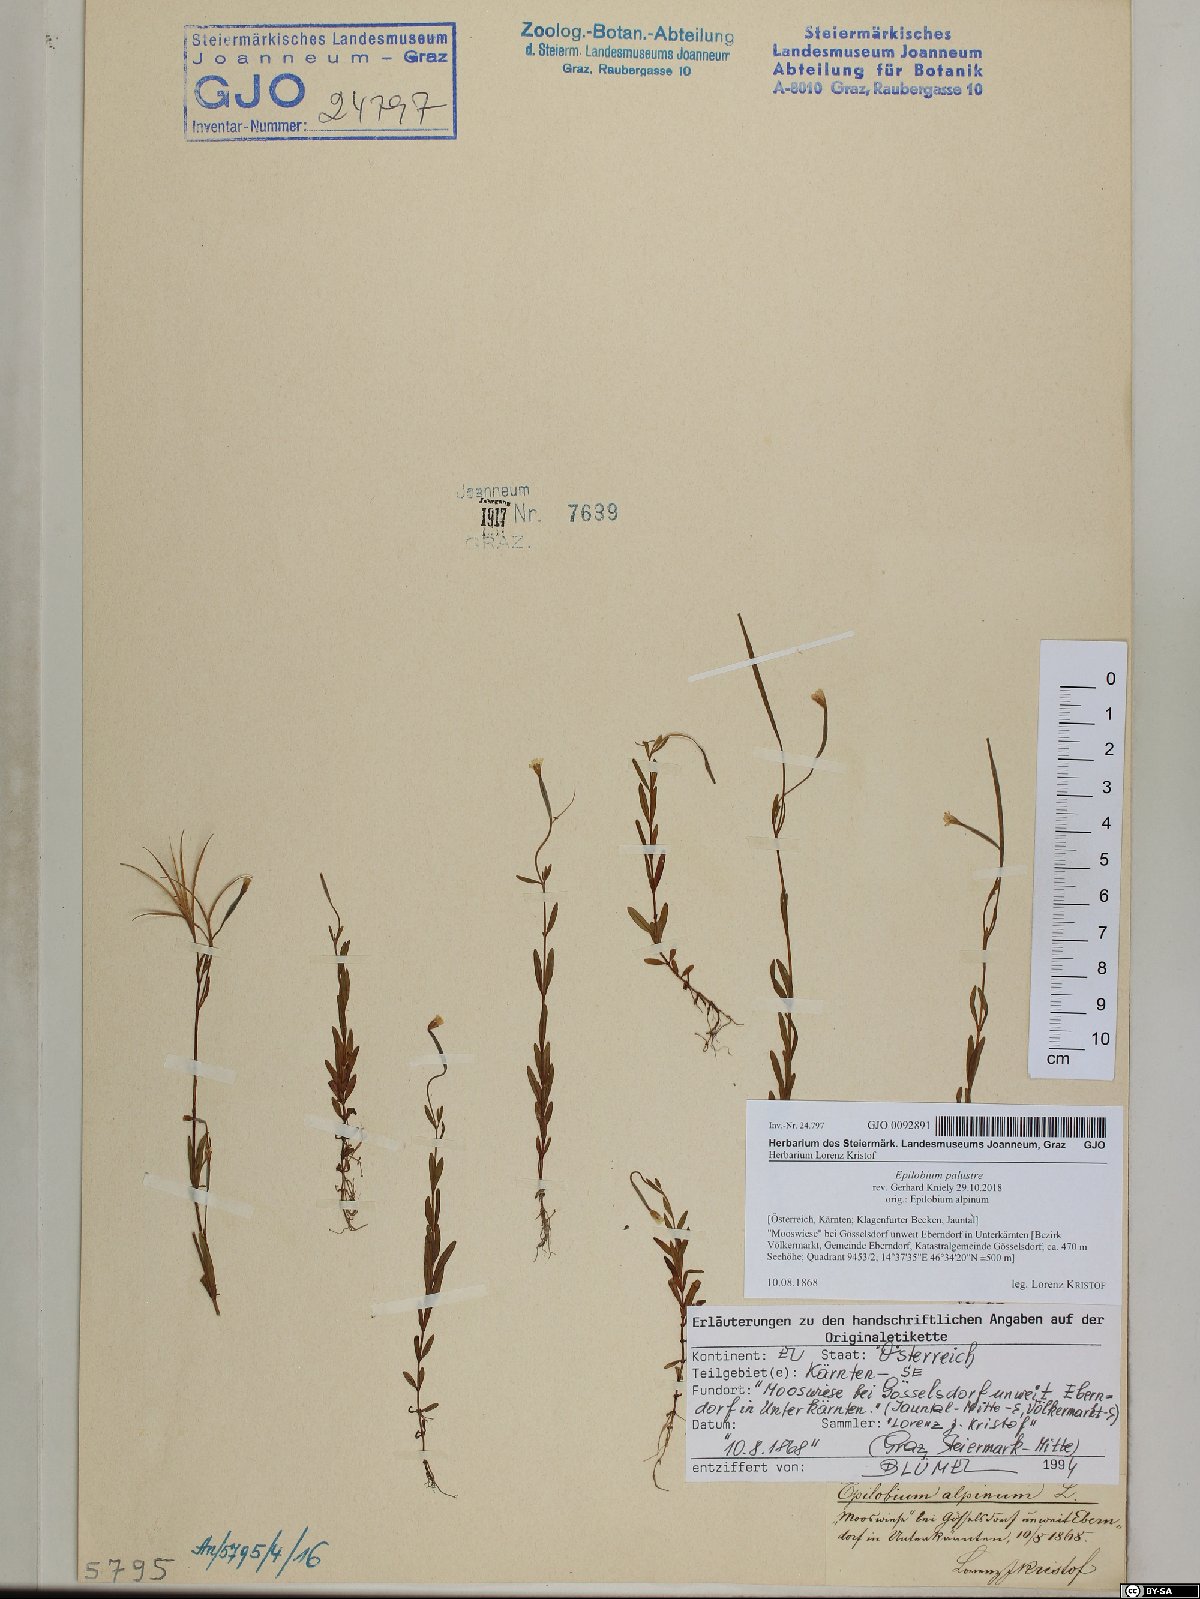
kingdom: Plantae
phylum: Tracheophyta
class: Magnoliopsida
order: Myrtales
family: Onagraceae
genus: Epilobium
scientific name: Epilobium palustre
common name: Marsh willowherb
